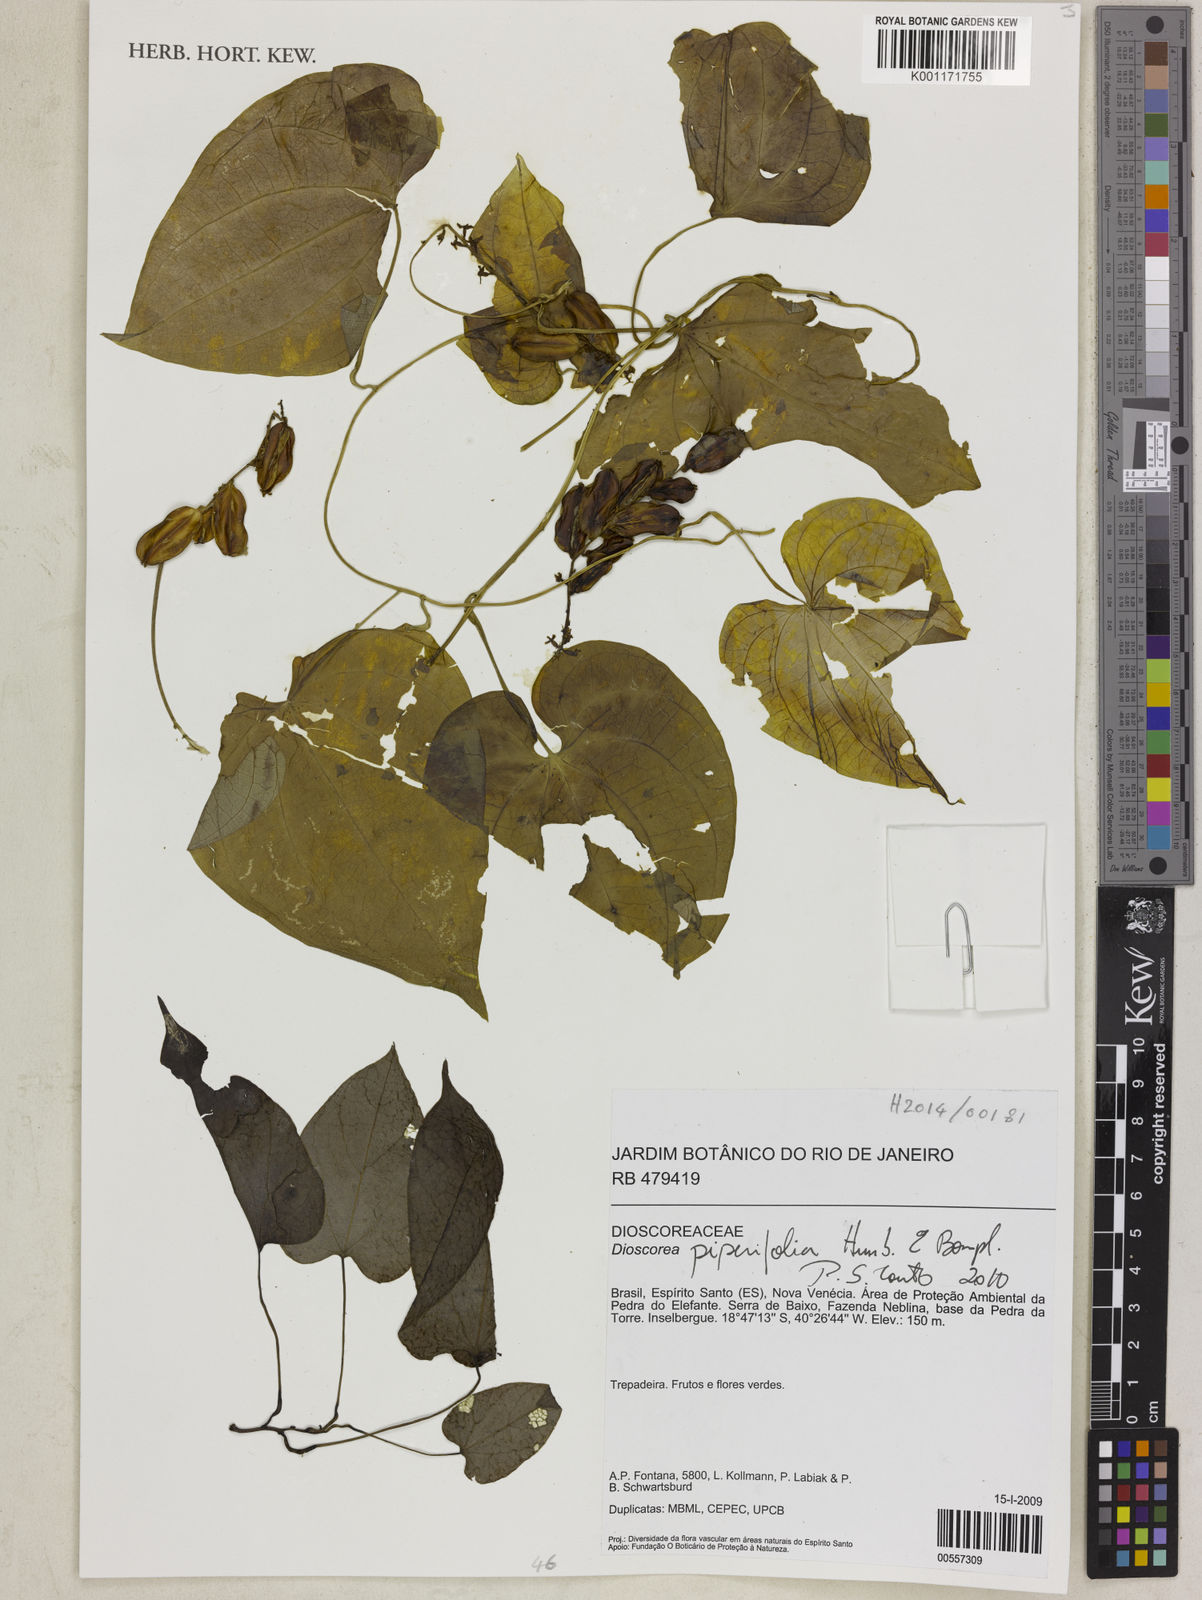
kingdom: Plantae
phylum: Tracheophyta
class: Liliopsida
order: Dioscoreales
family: Dioscoreaceae
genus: Dioscorea
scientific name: Dioscorea piperifolia
